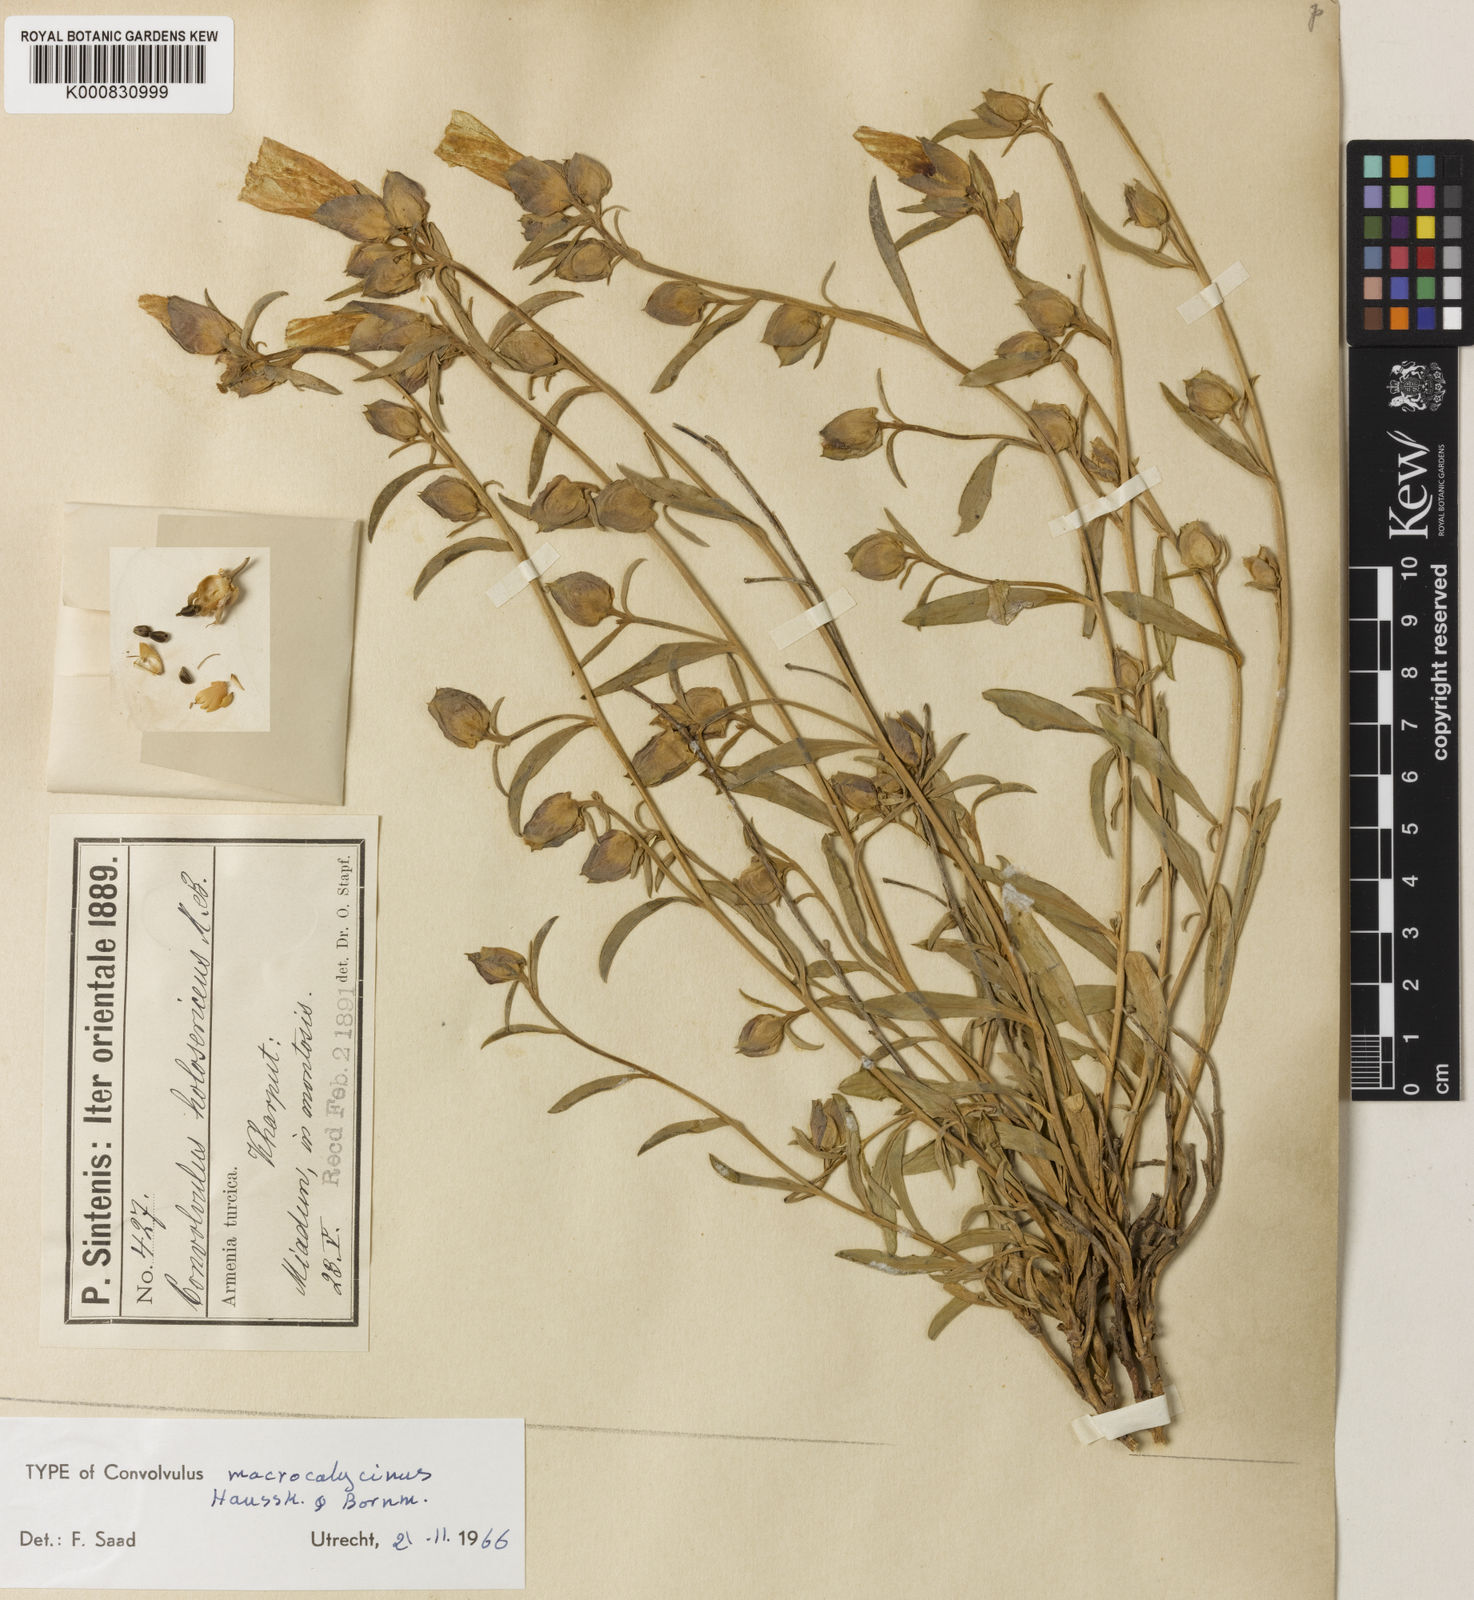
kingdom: Plantae
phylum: Tracheophyta
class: Magnoliopsida
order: Solanales
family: Convolvulaceae
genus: Convolvulus
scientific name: Convolvulus holosericeus
